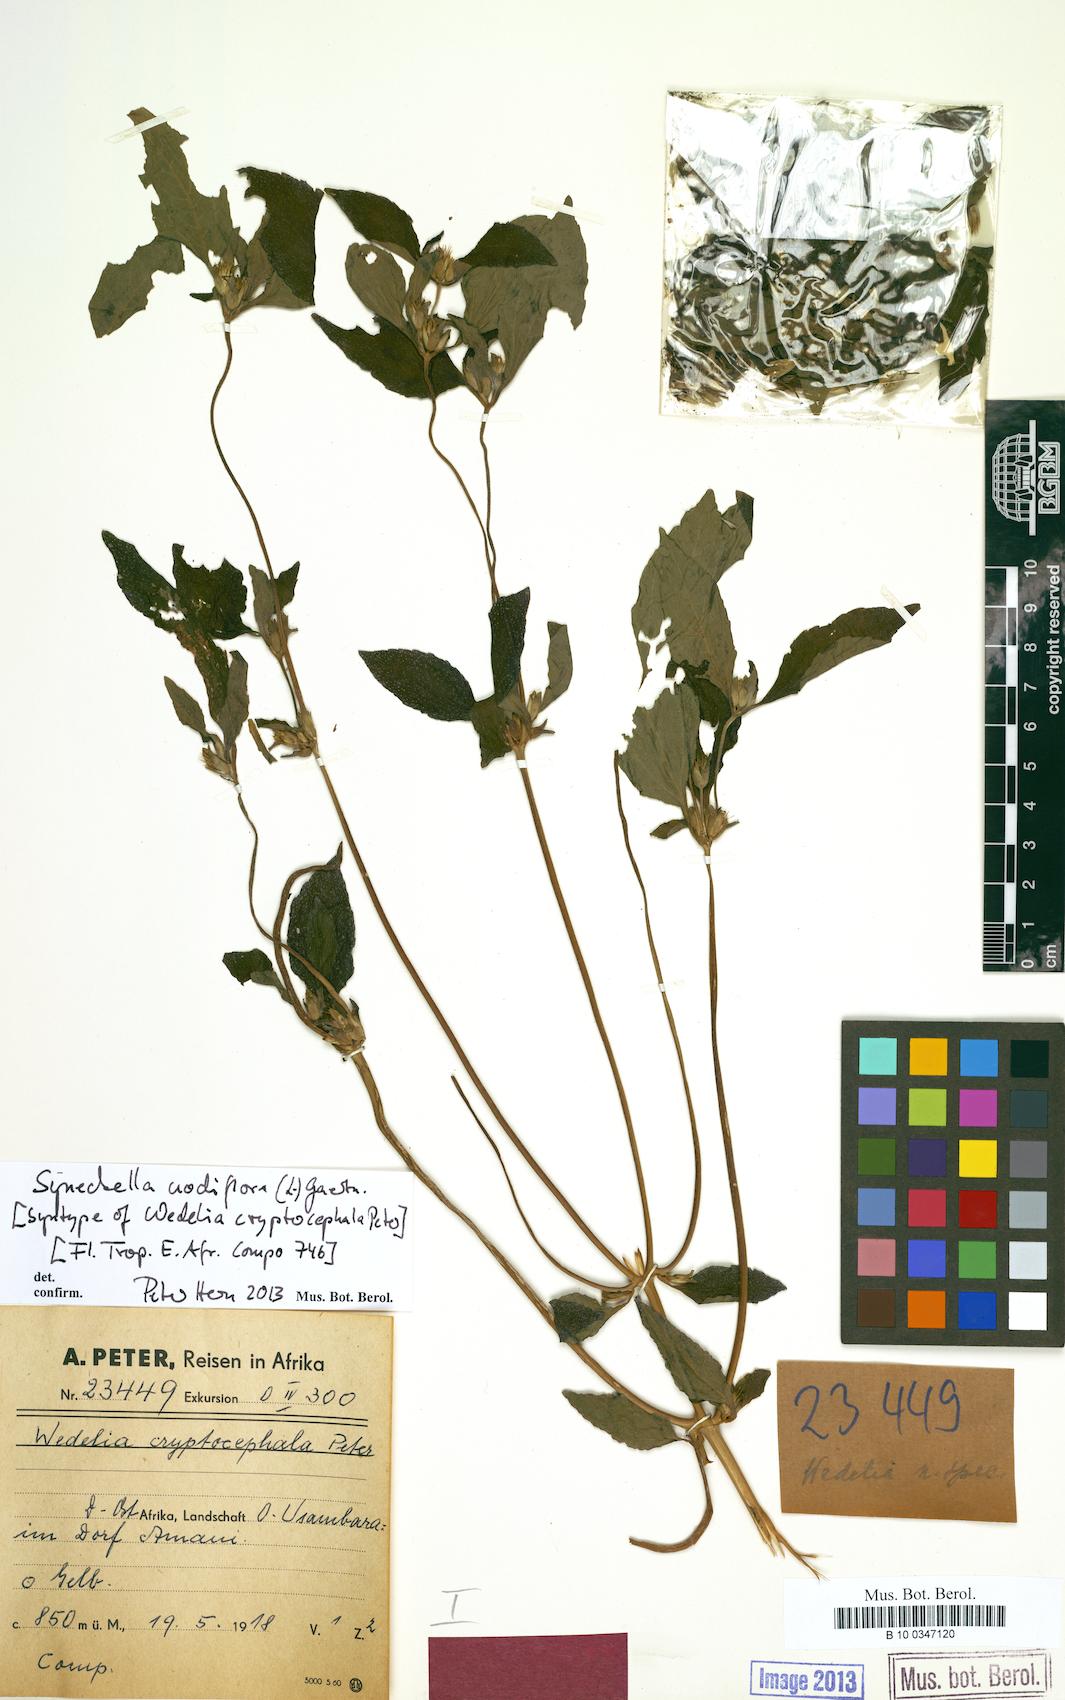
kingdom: Plantae
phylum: Tracheophyta
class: Magnoliopsida
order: Asterales
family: Asteraceae
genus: Synedrella
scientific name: Synedrella nodiflora
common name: Nodeweed
